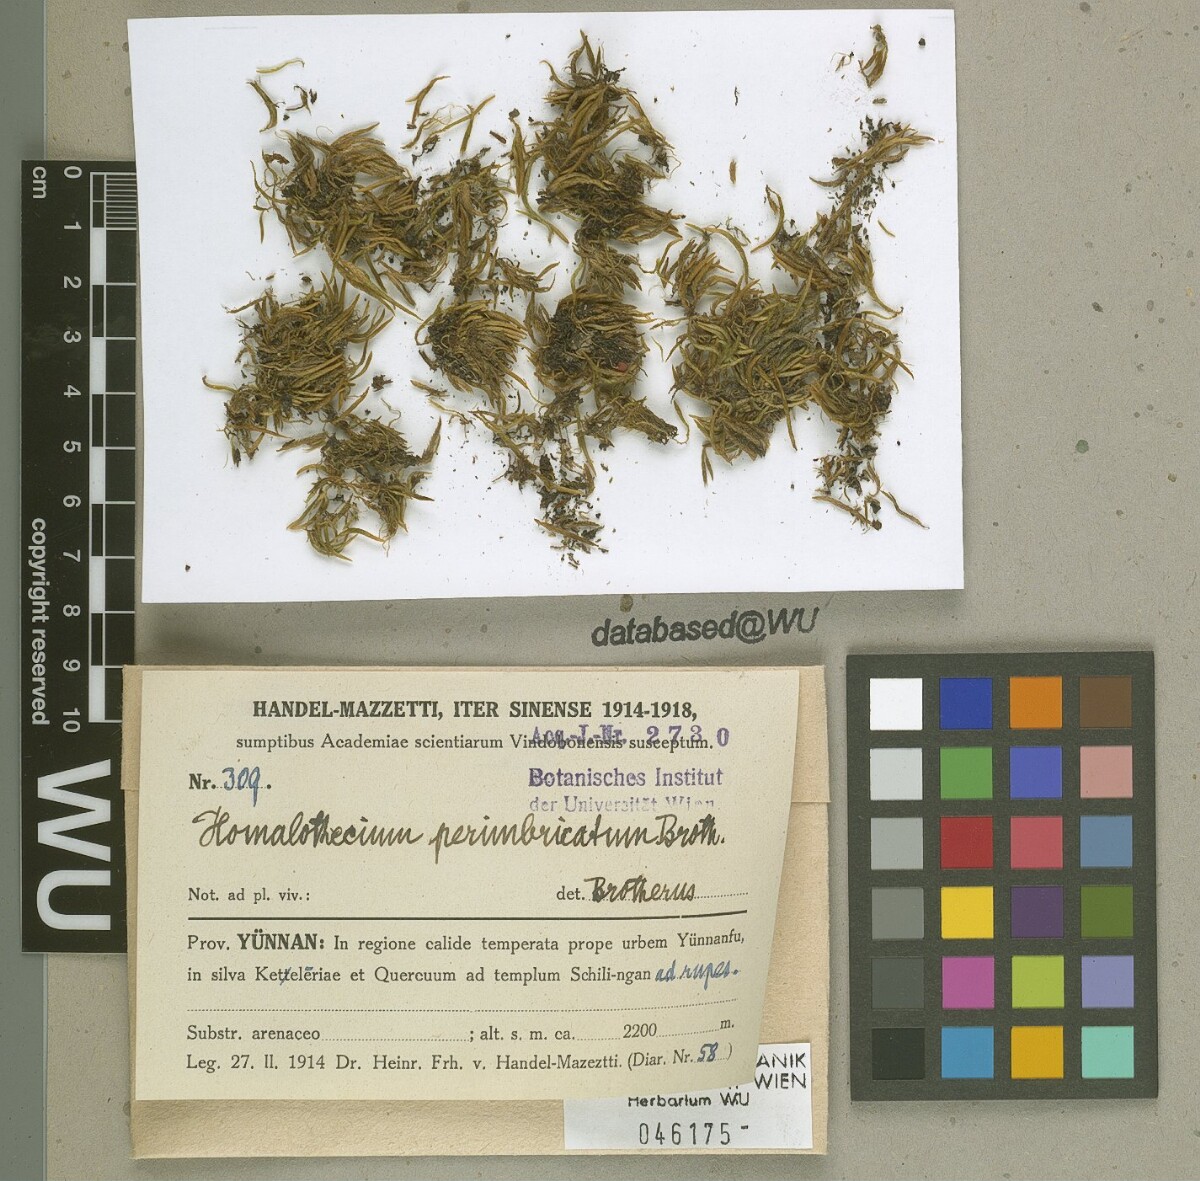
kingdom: Plantae
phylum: Bryophyta
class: Bryopsida
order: Hypnales
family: Brachytheciaceae
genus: Oticodium
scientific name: Oticodium laevisetum
